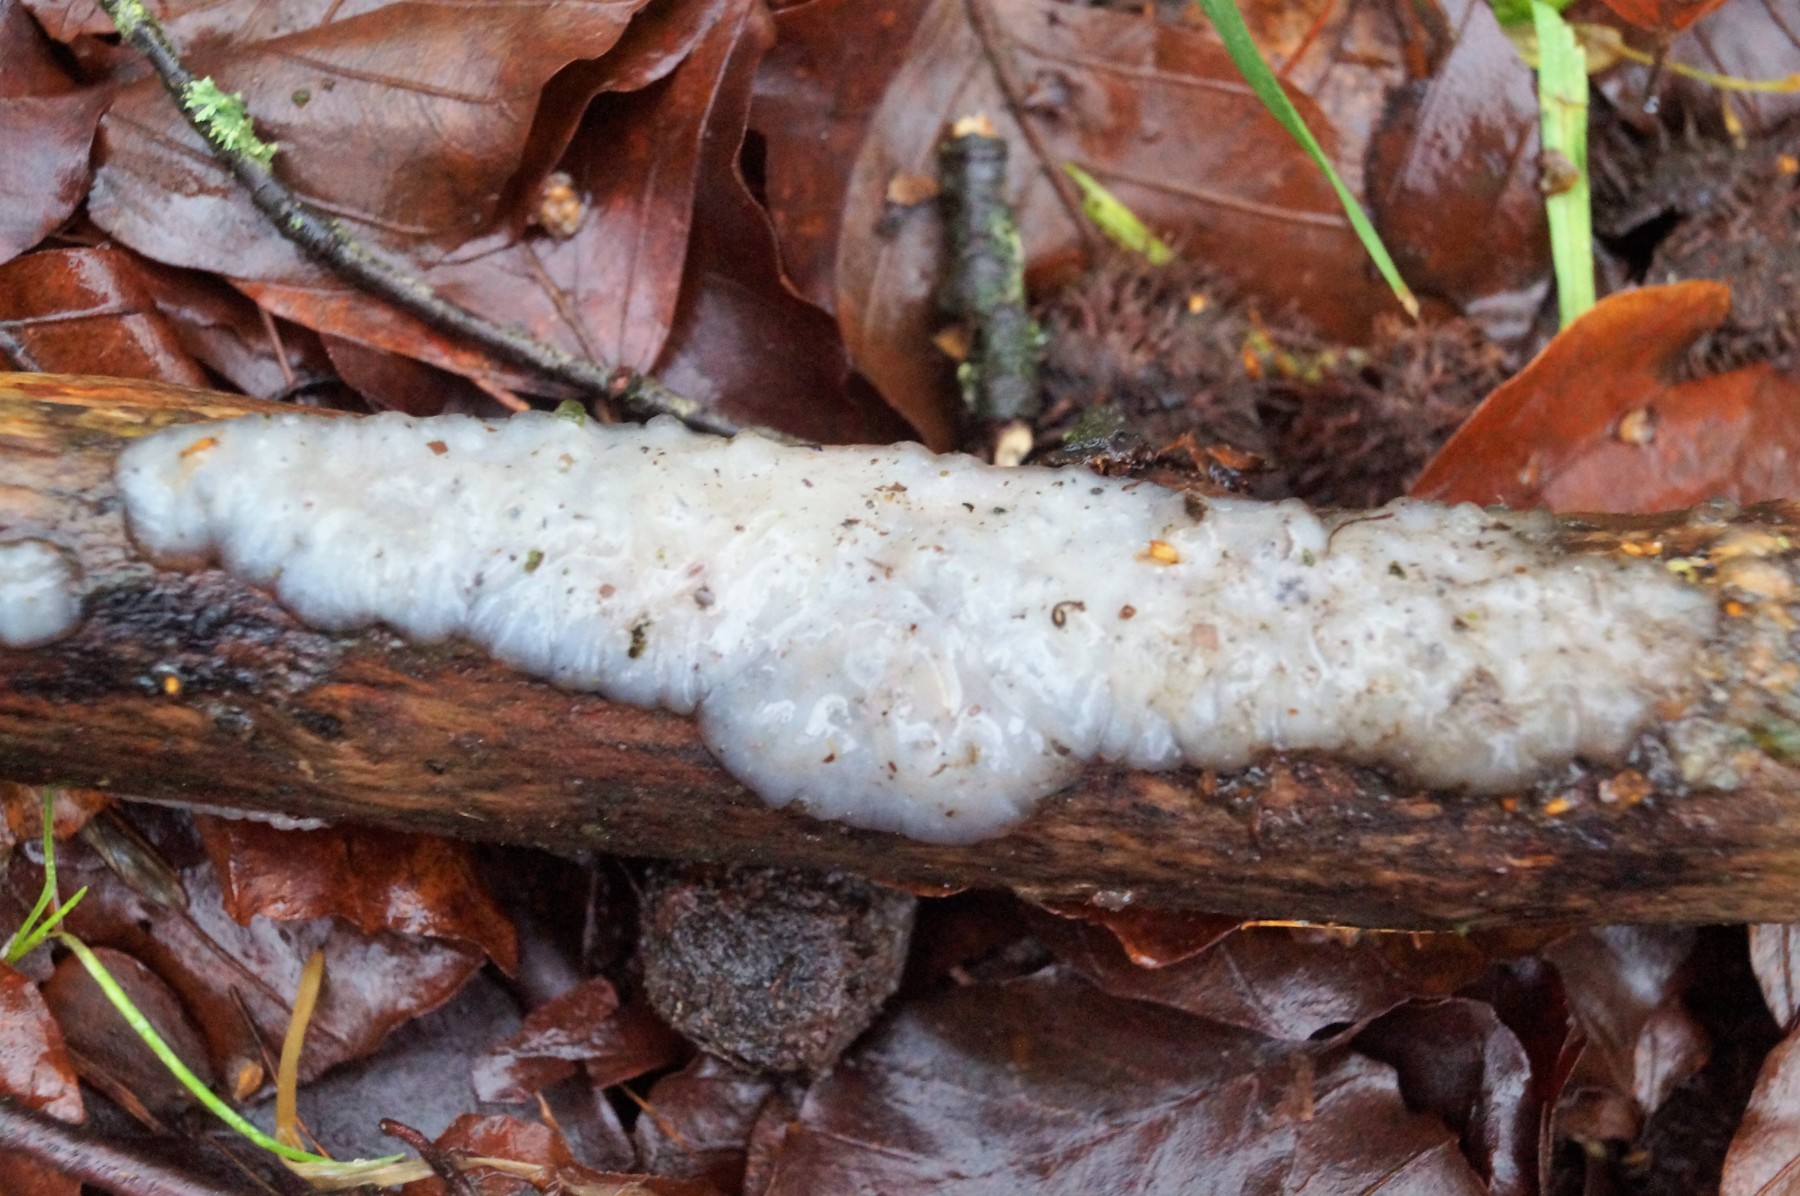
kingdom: Fungi
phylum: Basidiomycota
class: Agaricomycetes
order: Auriculariales
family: Auriculariaceae
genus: Exidia
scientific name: Exidia thuretiana
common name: hvidlig bævretop
